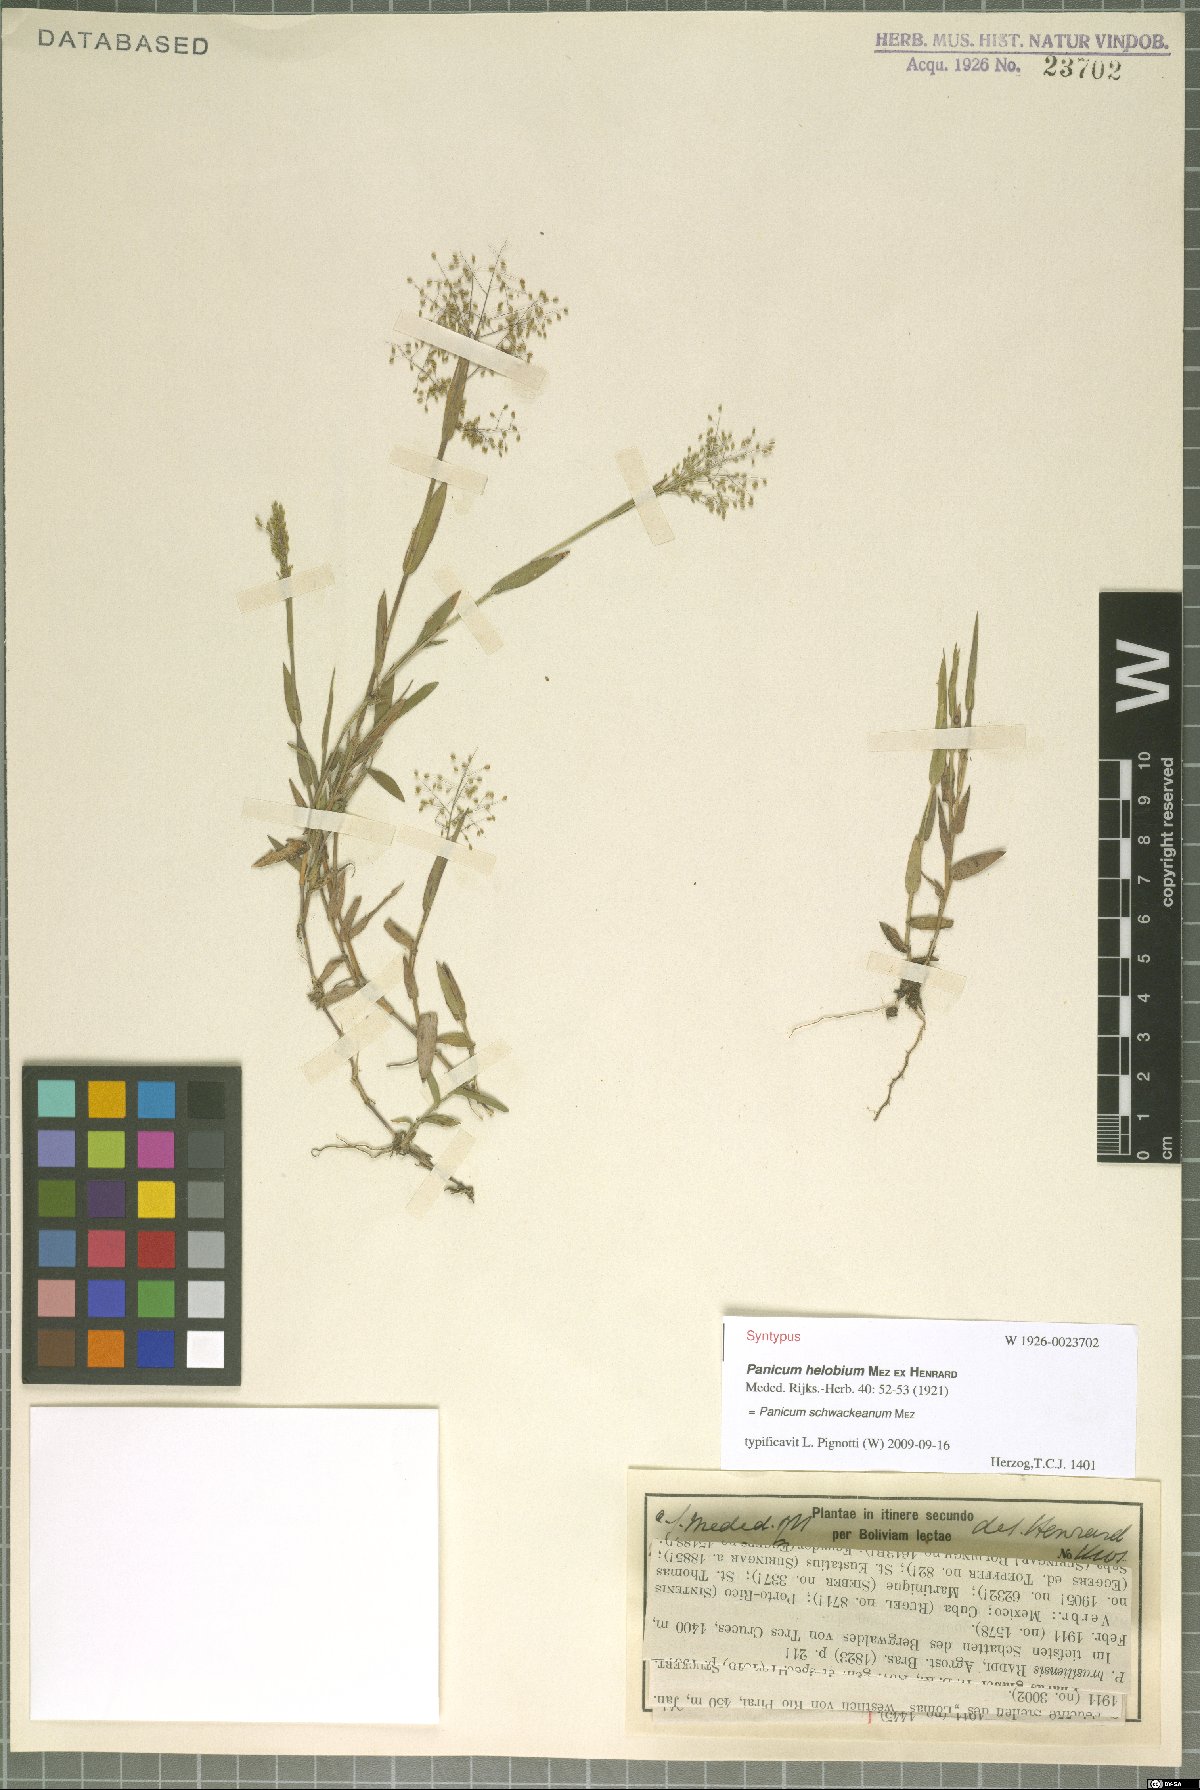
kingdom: Plantae
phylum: Tracheophyta
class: Liliopsida
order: Poales
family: Poaceae
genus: Trichanthecium
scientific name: Trichanthecium schwackeanum
